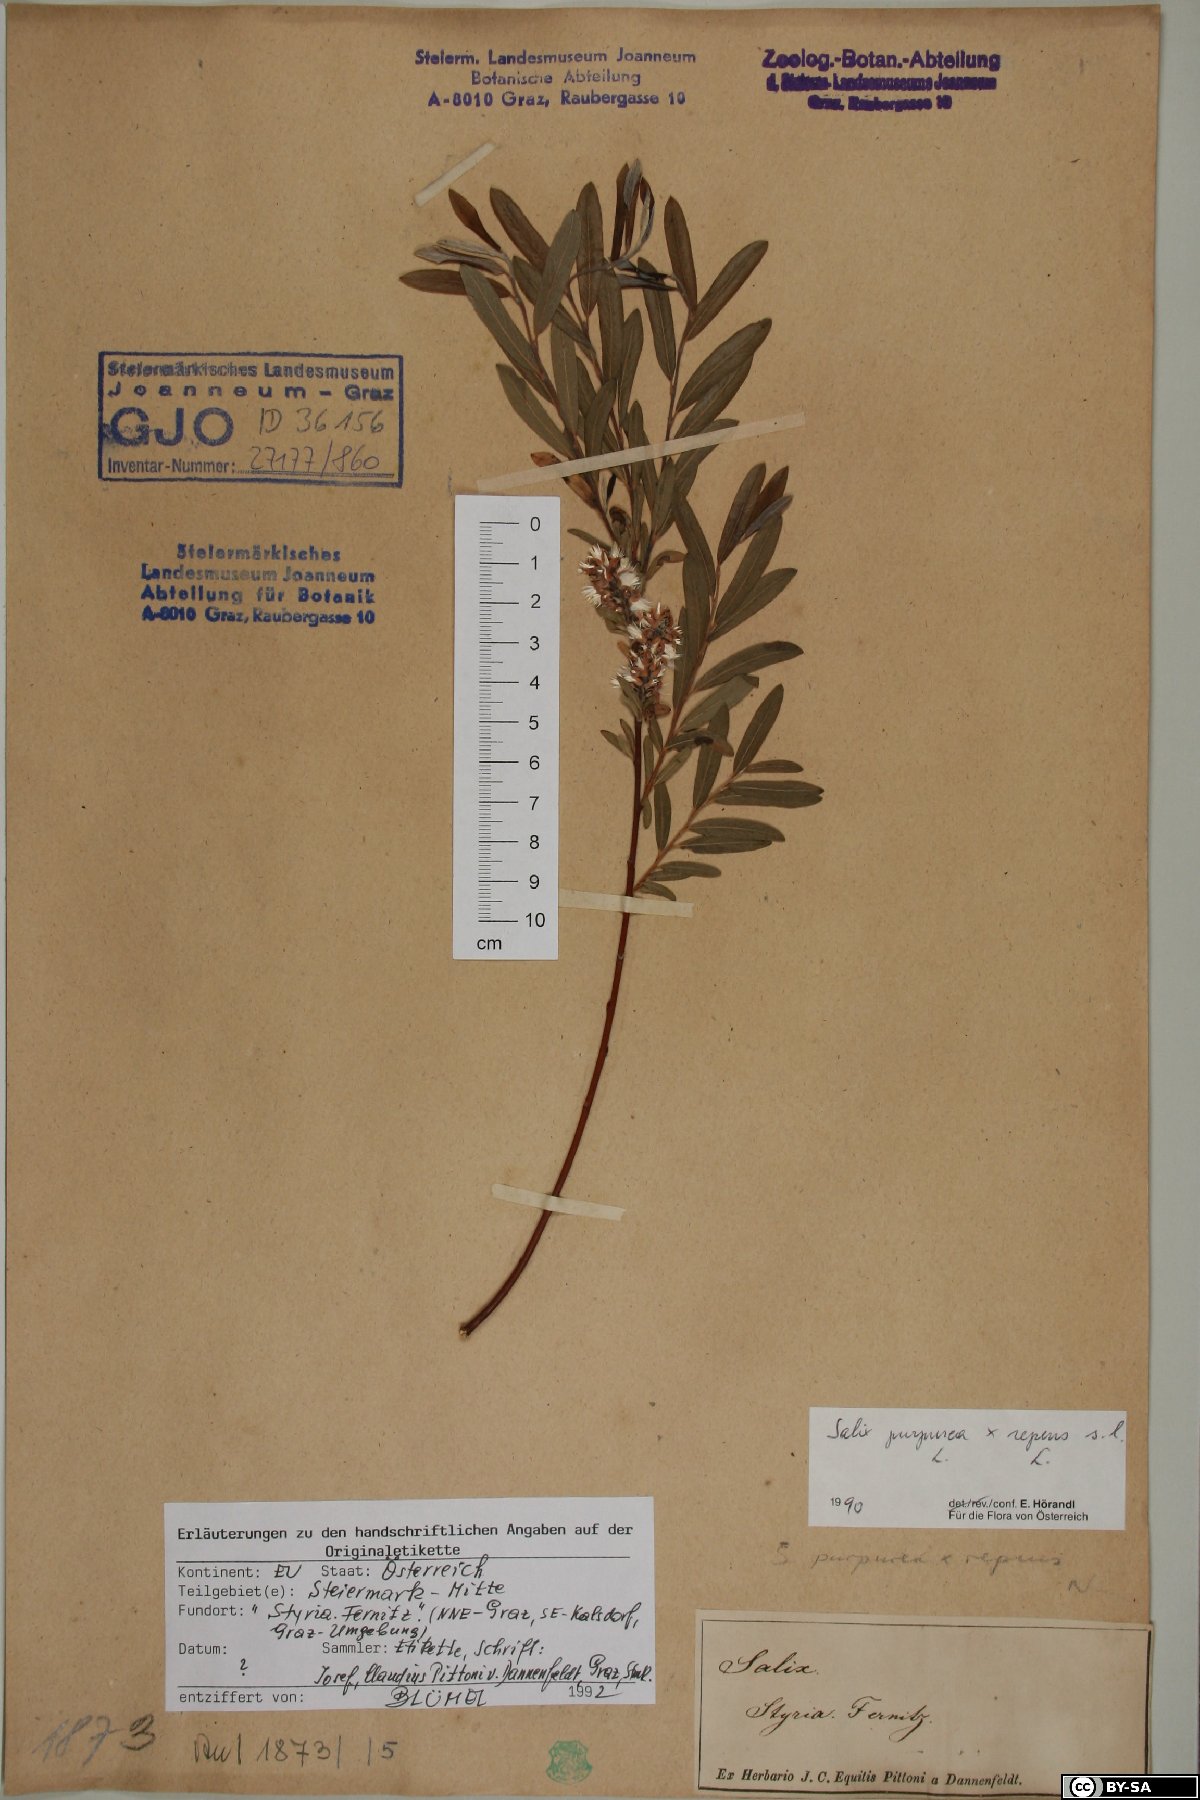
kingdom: Plantae
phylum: Tracheophyta
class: Magnoliopsida
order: Malpighiales
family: Salicaceae
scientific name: Salicaceae
